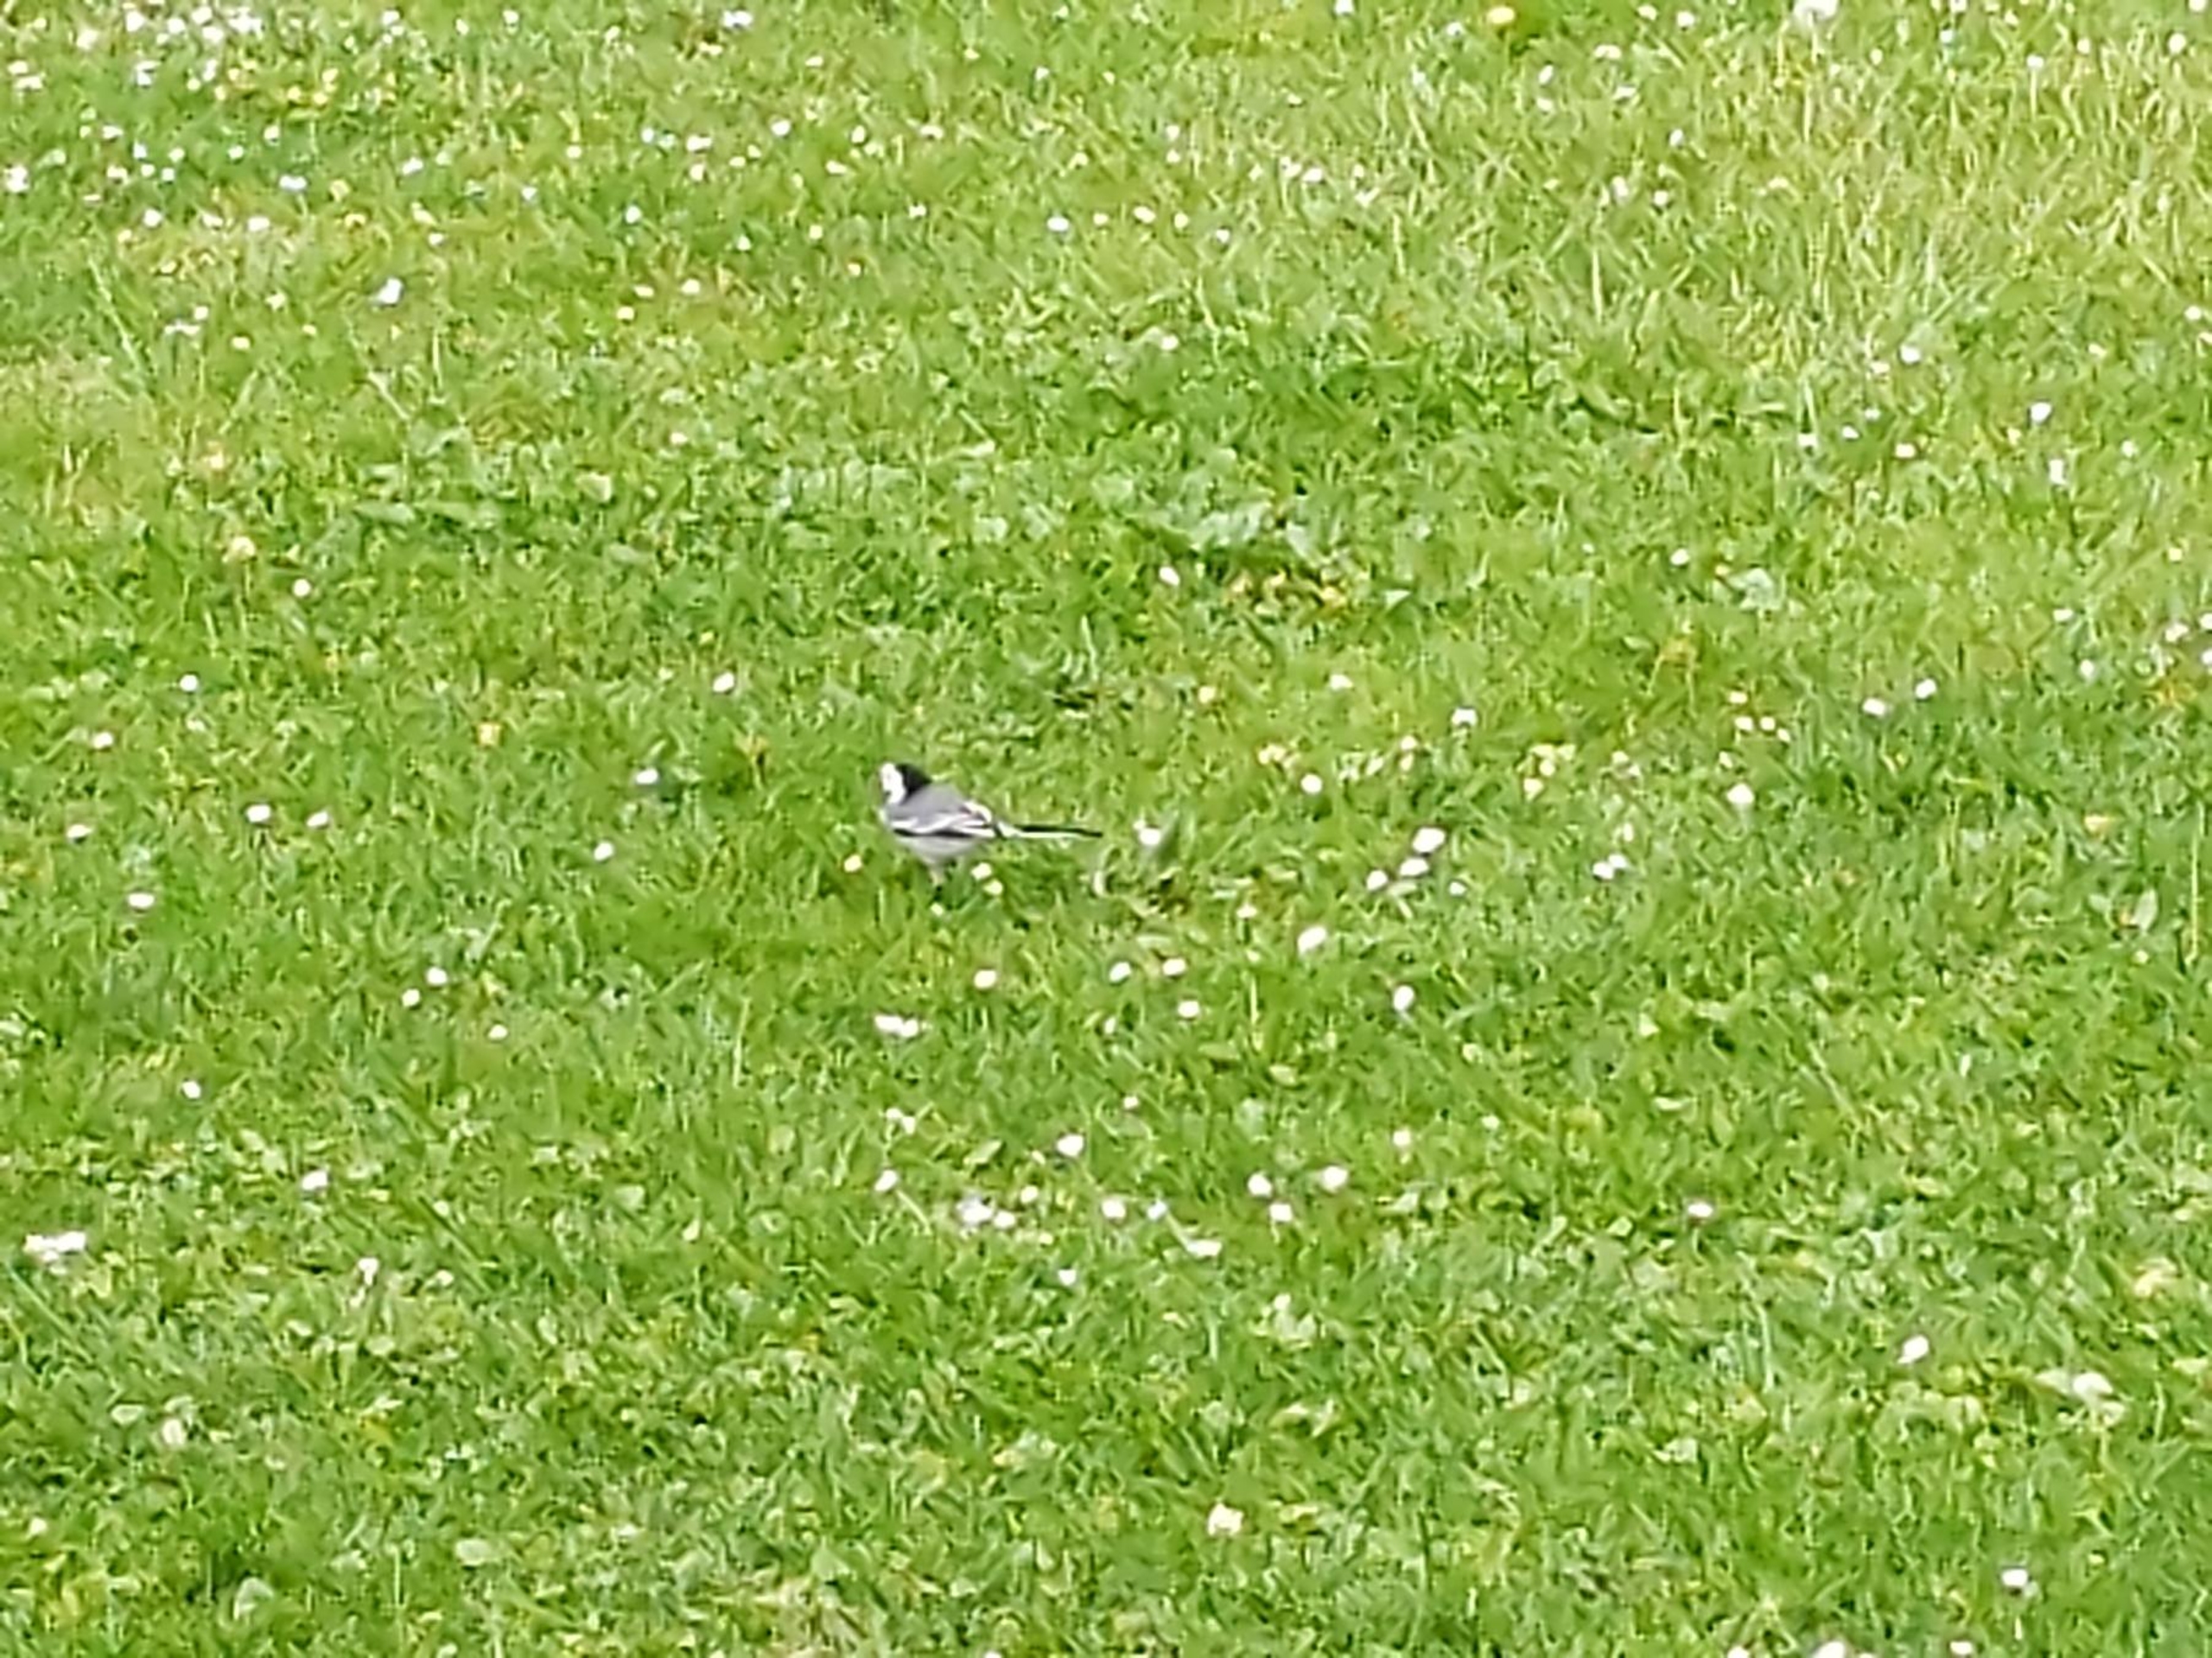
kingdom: Animalia
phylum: Chordata
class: Aves
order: Passeriformes
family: Motacillidae
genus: Motacilla
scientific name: Motacilla alba
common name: Hvid vipstjert
